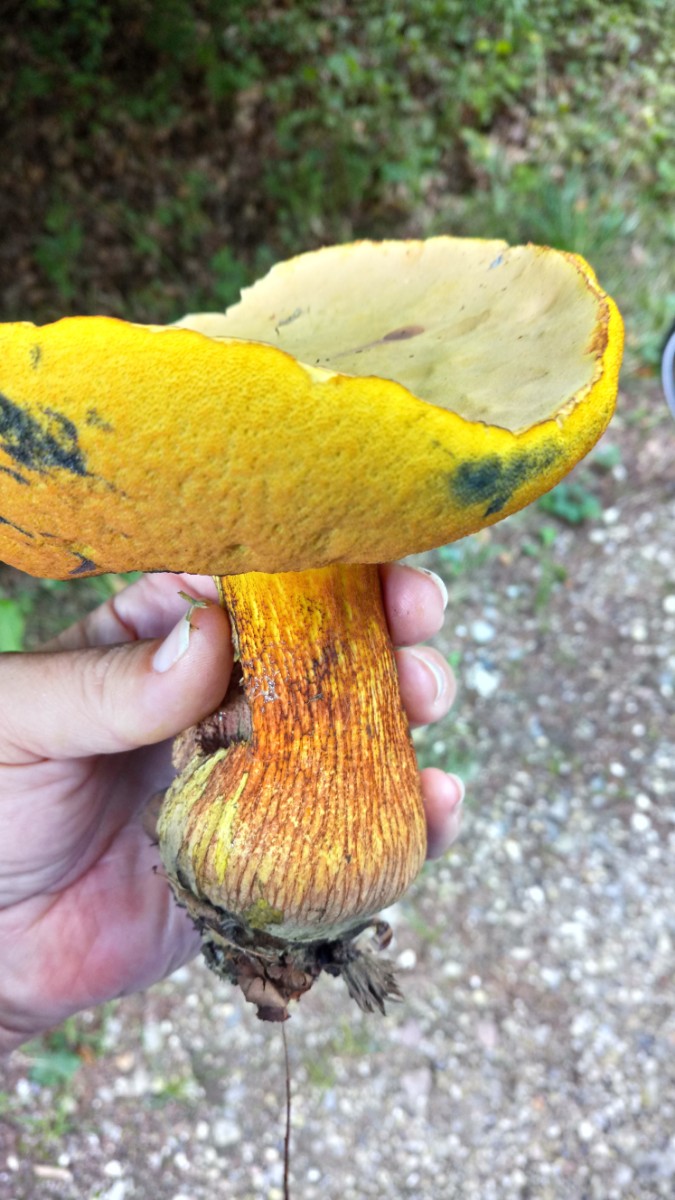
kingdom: Fungi
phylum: Basidiomycota
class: Agaricomycetes
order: Boletales
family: Boletaceae
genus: Suillellus
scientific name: Suillellus luridus
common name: netstokket indigorørhat
